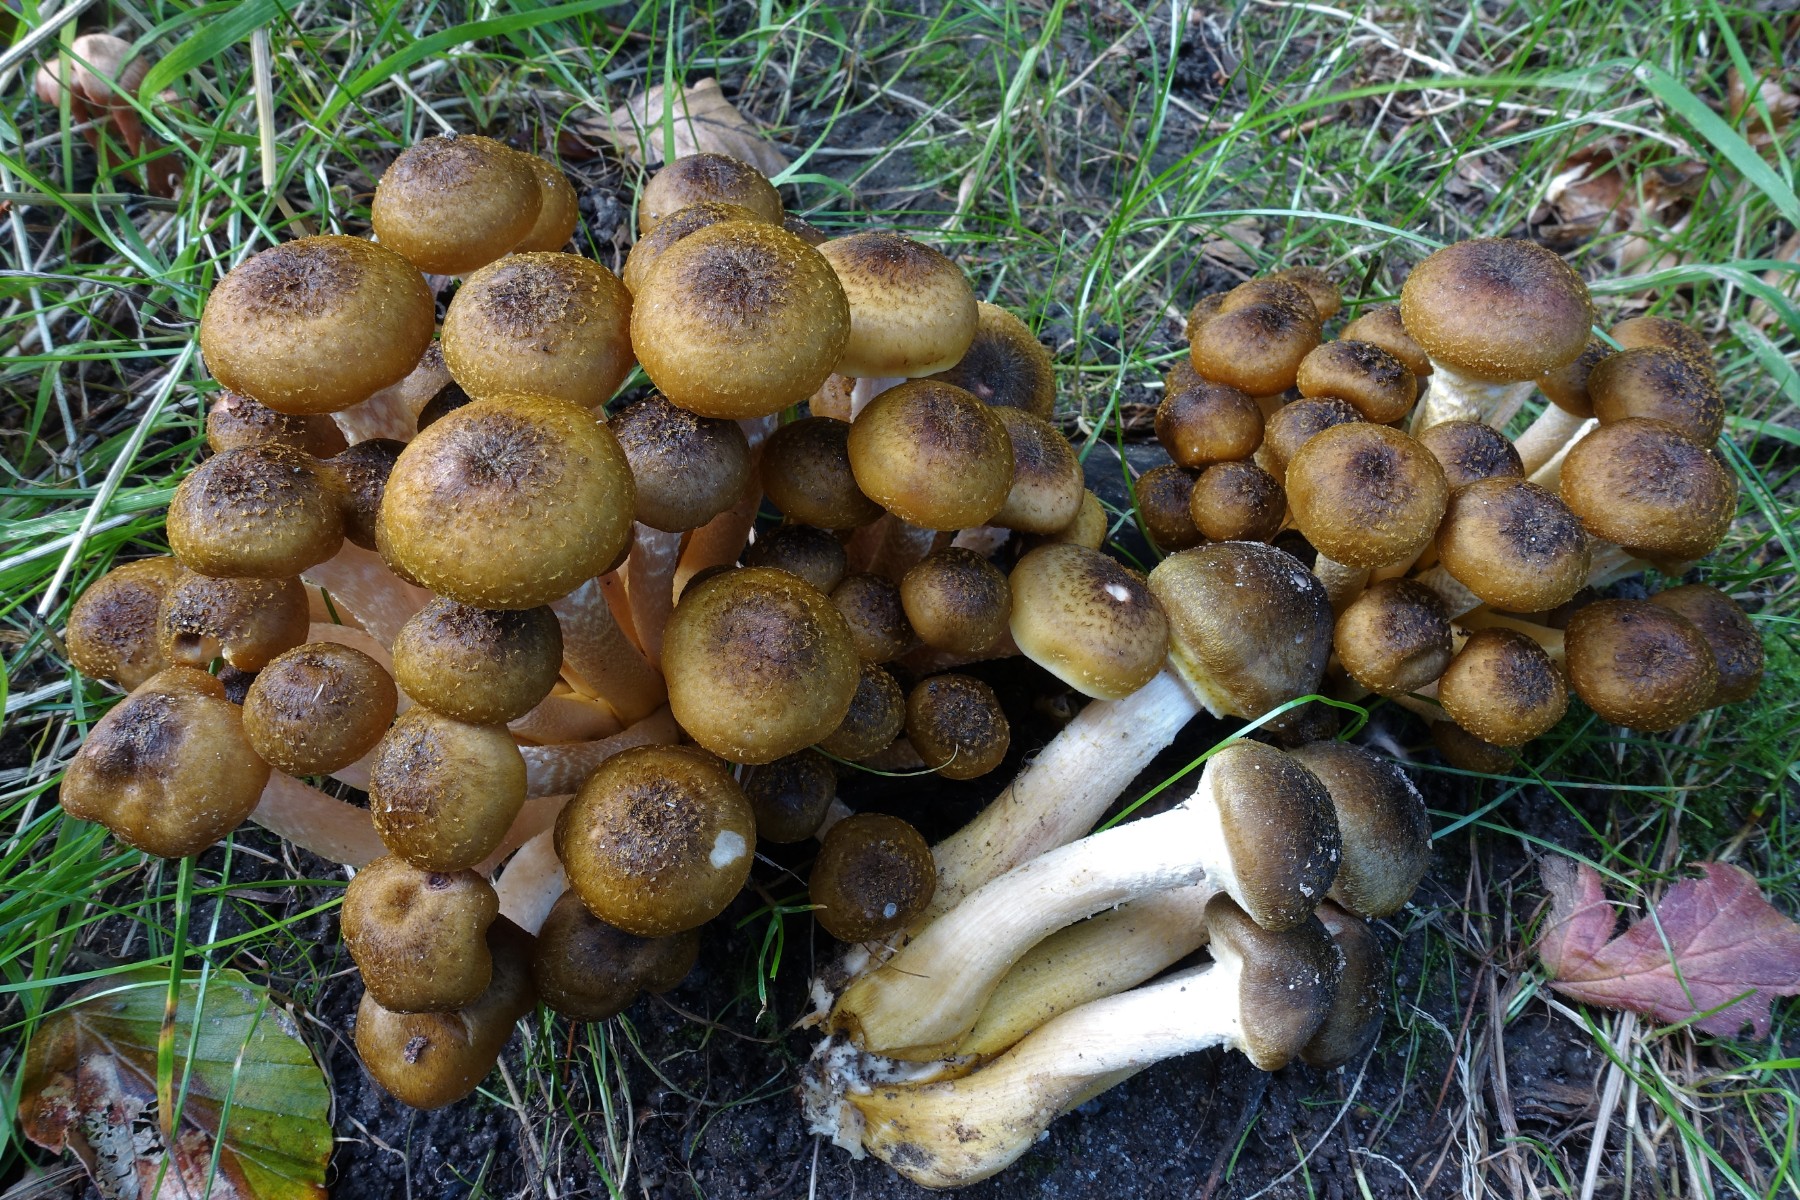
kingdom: Fungi
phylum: Basidiomycota
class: Agaricomycetes
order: Agaricales
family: Physalacriaceae
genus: Armillaria
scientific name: Armillaria mellea
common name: ægte honningsvamp
